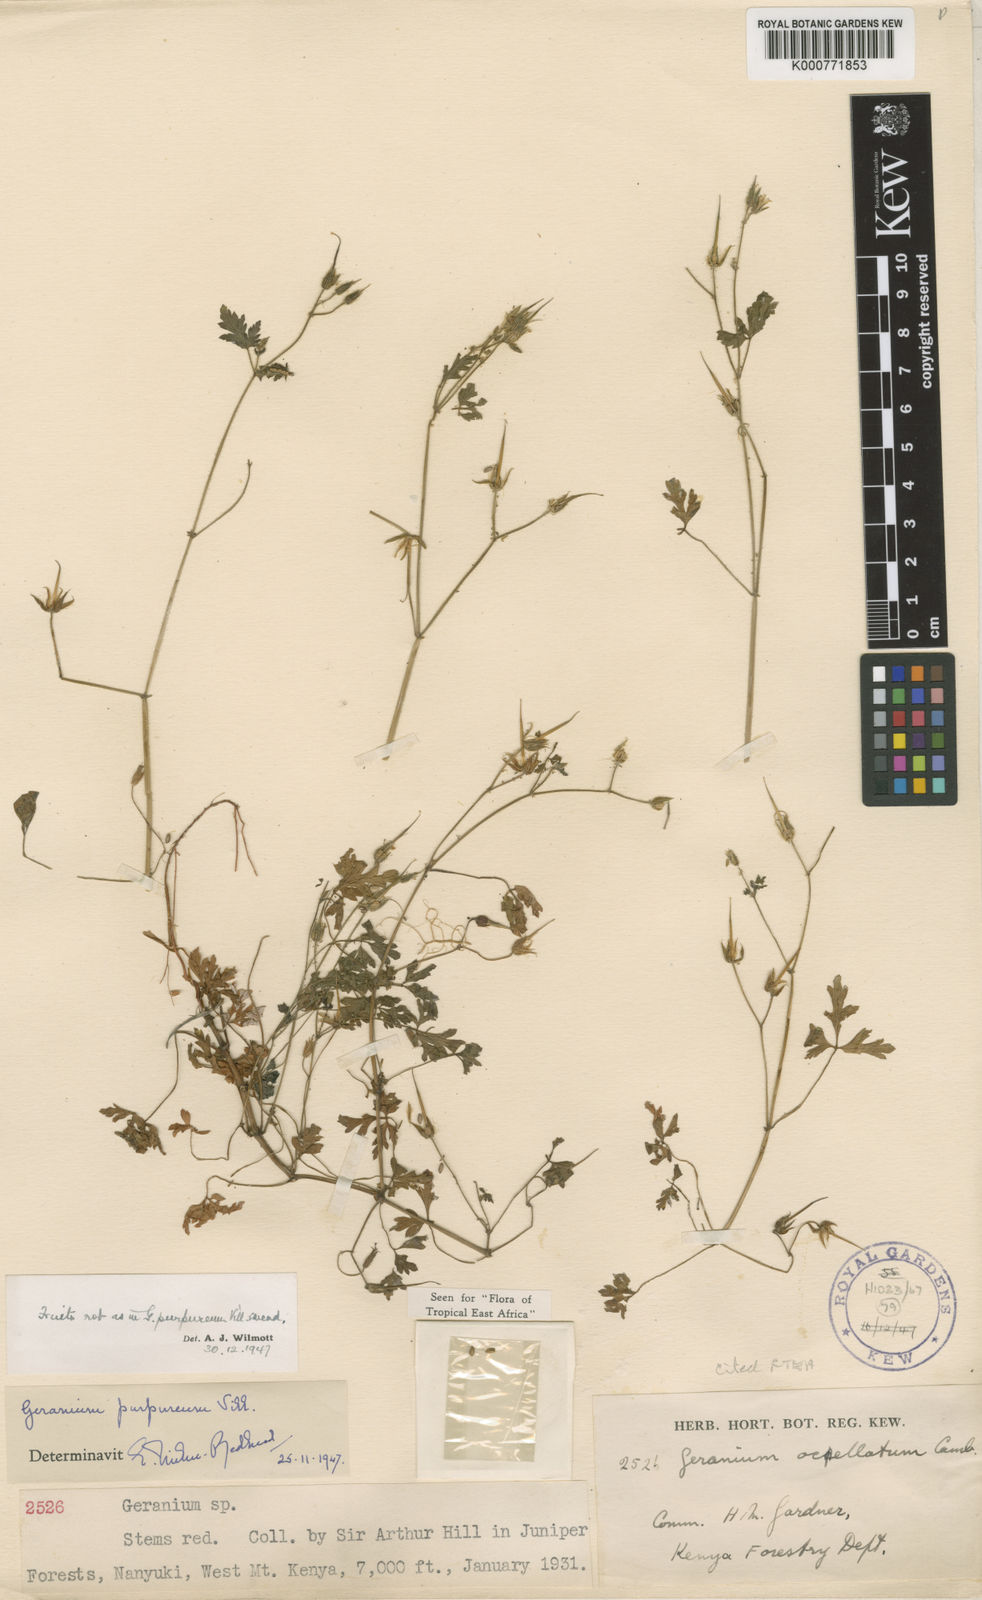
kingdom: Plantae
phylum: Tracheophyta
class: Magnoliopsida
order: Geraniales
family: Geraniaceae
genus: Geranium
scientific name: Geranium purpureum
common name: Little-robin
